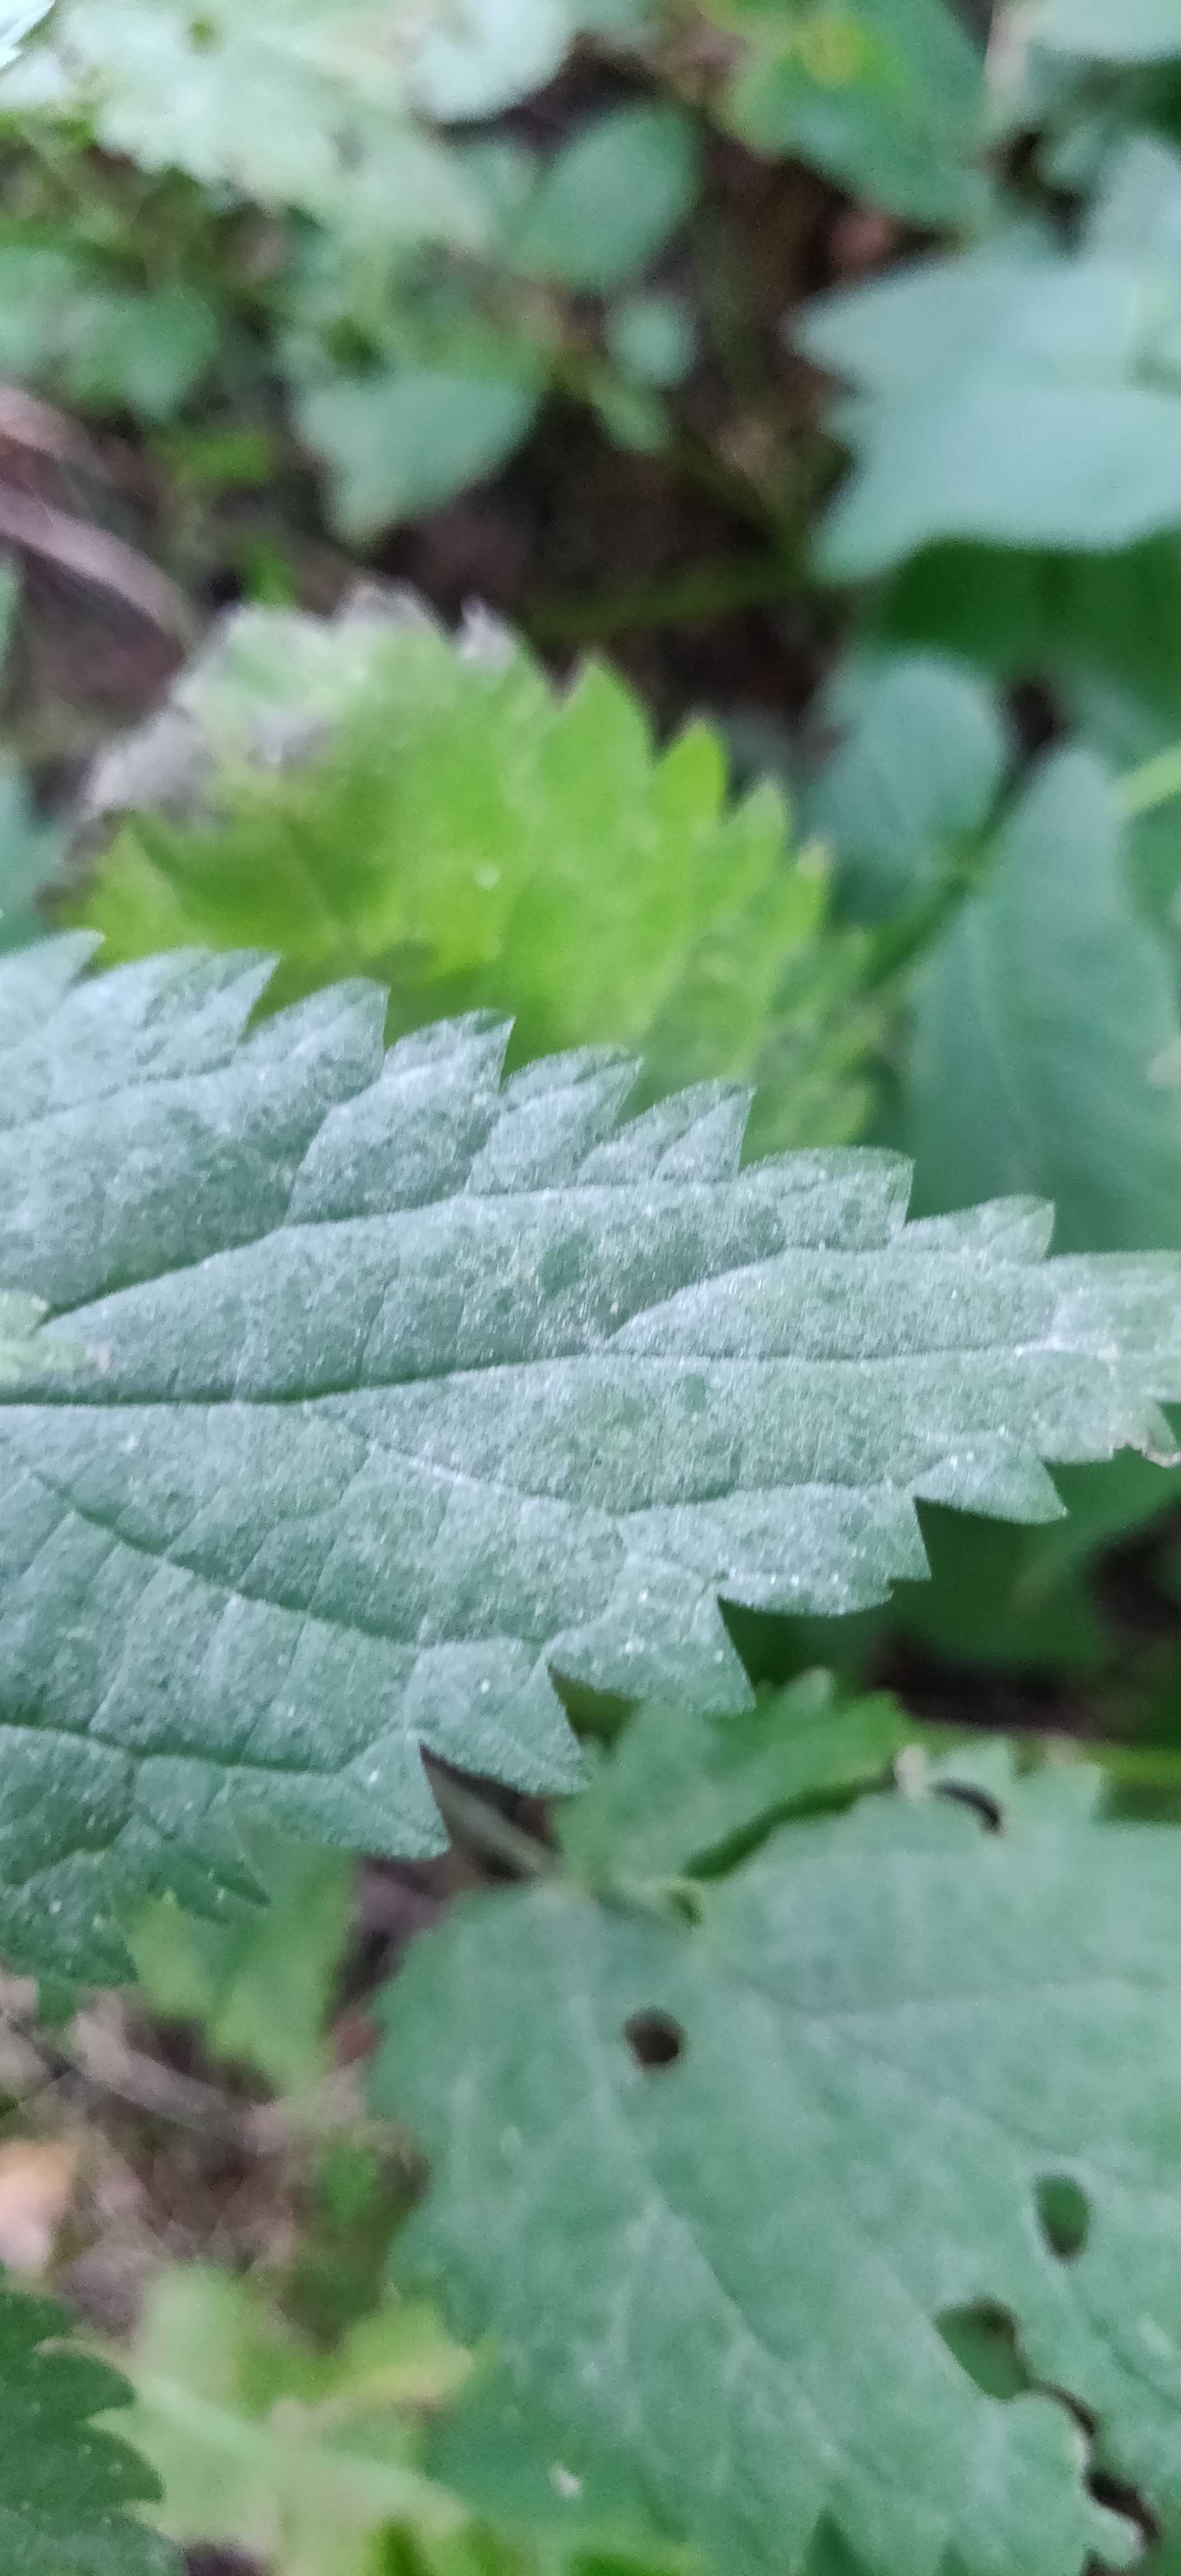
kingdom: Fungi
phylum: Ascomycota
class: Leotiomycetes
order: Helotiales
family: Erysiphaceae
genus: Erysiphe
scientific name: Erysiphe urticae
